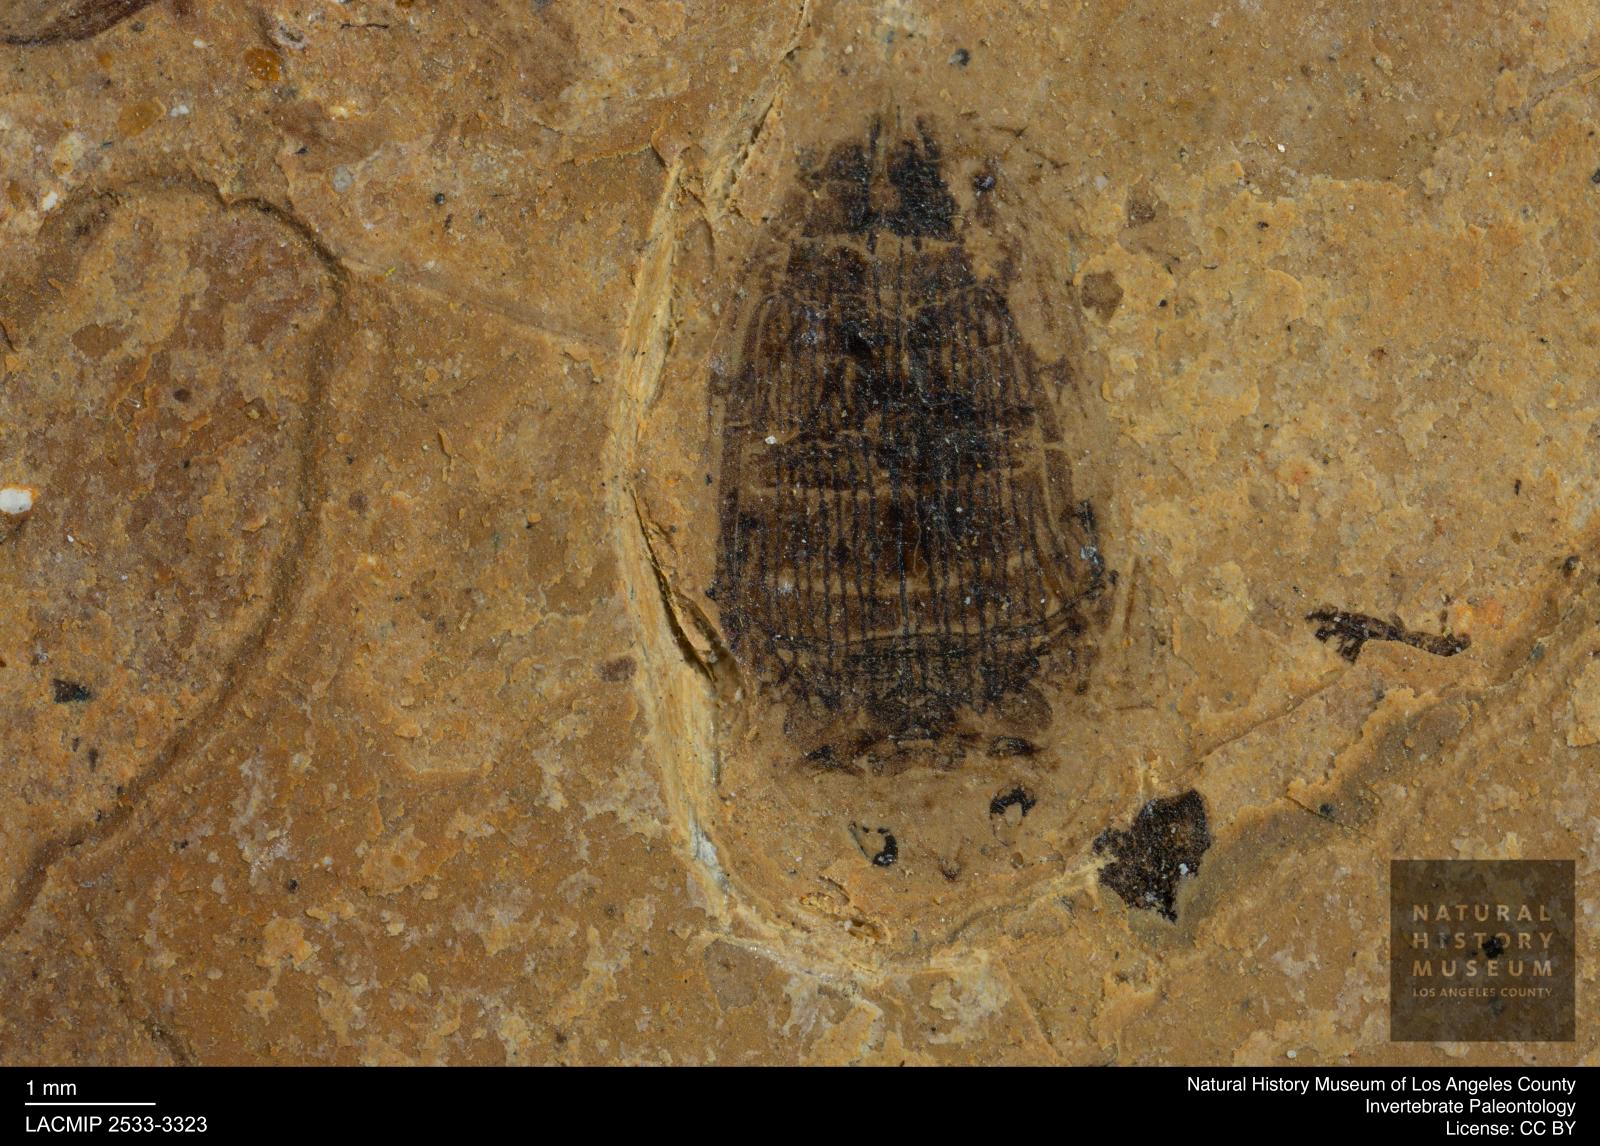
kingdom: Animalia
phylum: Arthropoda
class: Insecta
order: Coleoptera
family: Dytiscidae
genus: Laccophilus
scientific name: Laccophilus Palaeogyrinus strigatus
